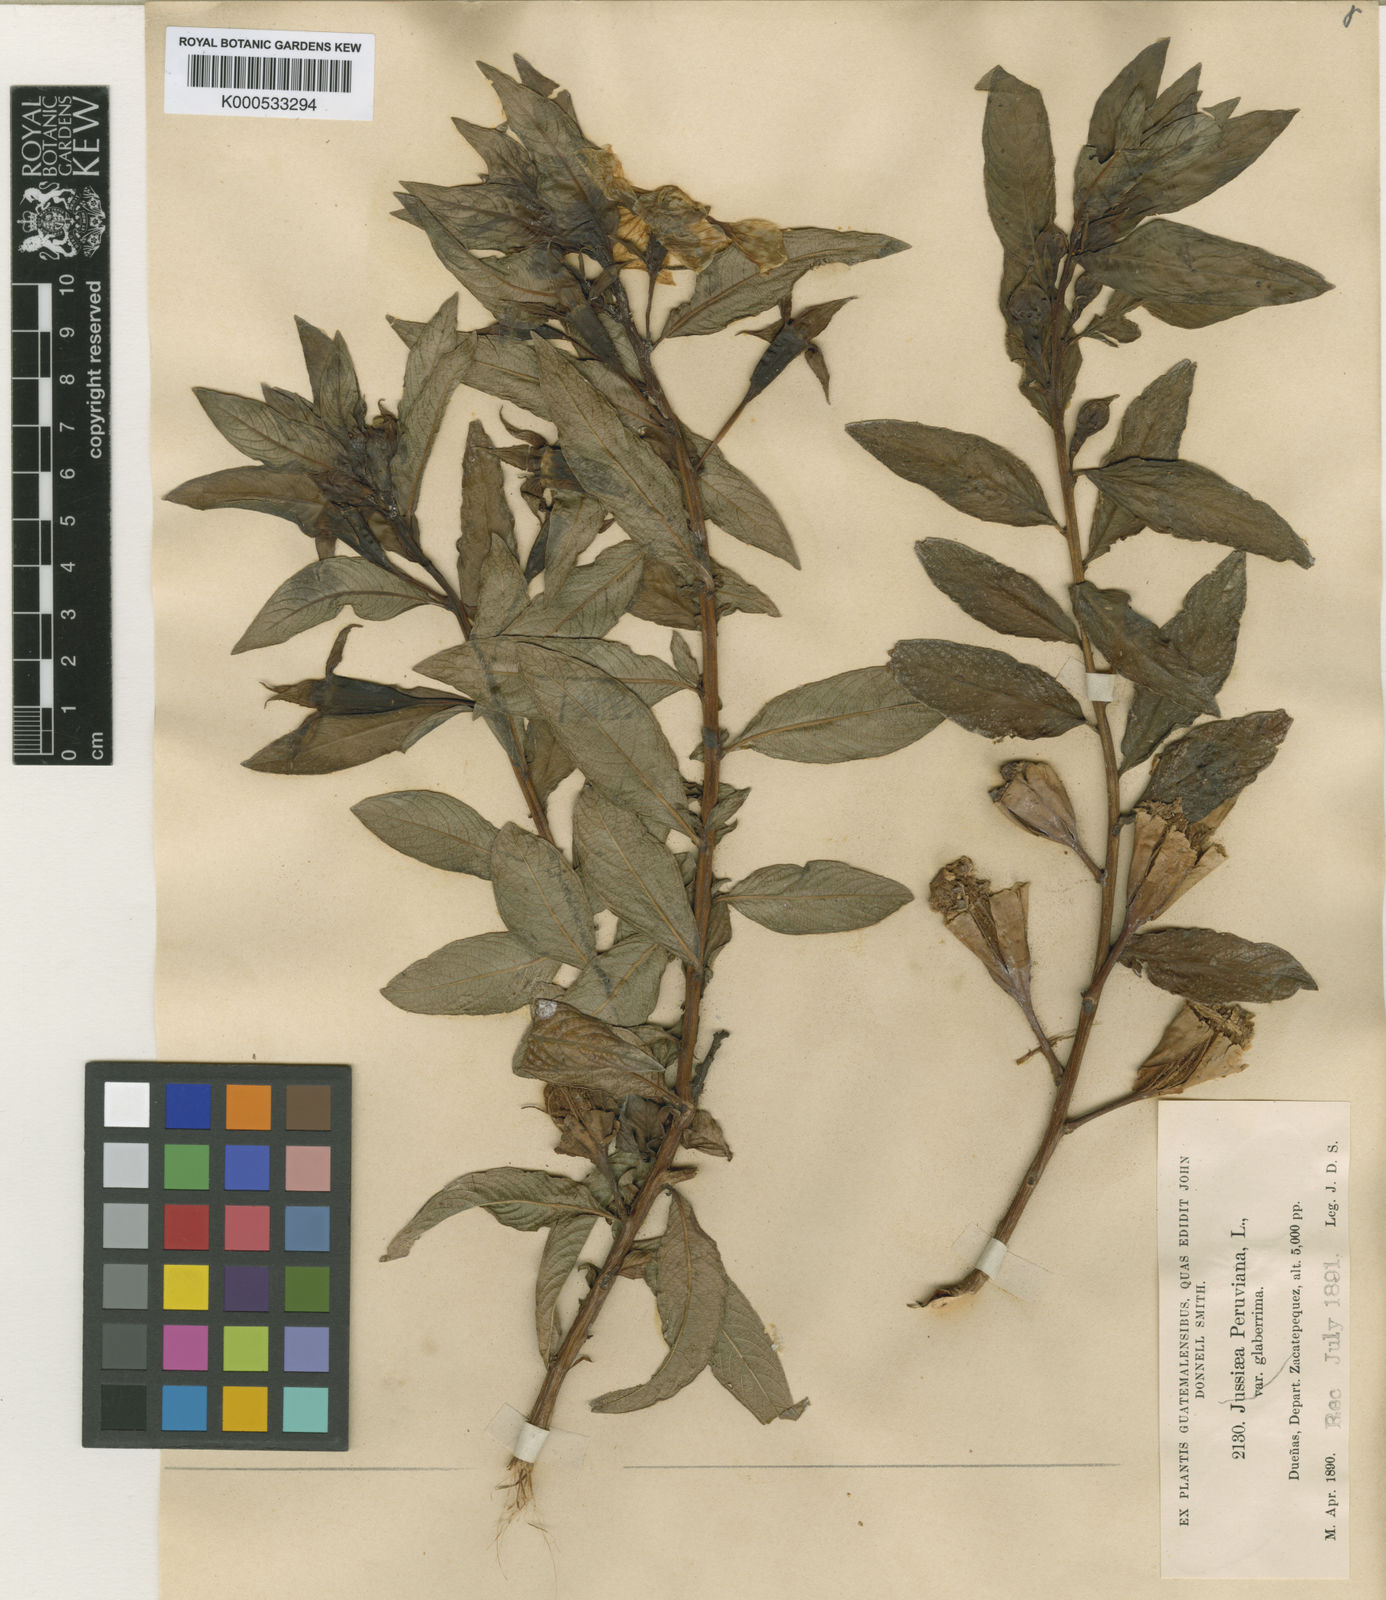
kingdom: Plantae
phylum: Tracheophyta
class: Magnoliopsida
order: Myrtales
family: Onagraceae
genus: Ludwigia
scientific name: Ludwigia peruviana
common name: Peruvian primrose-willow
